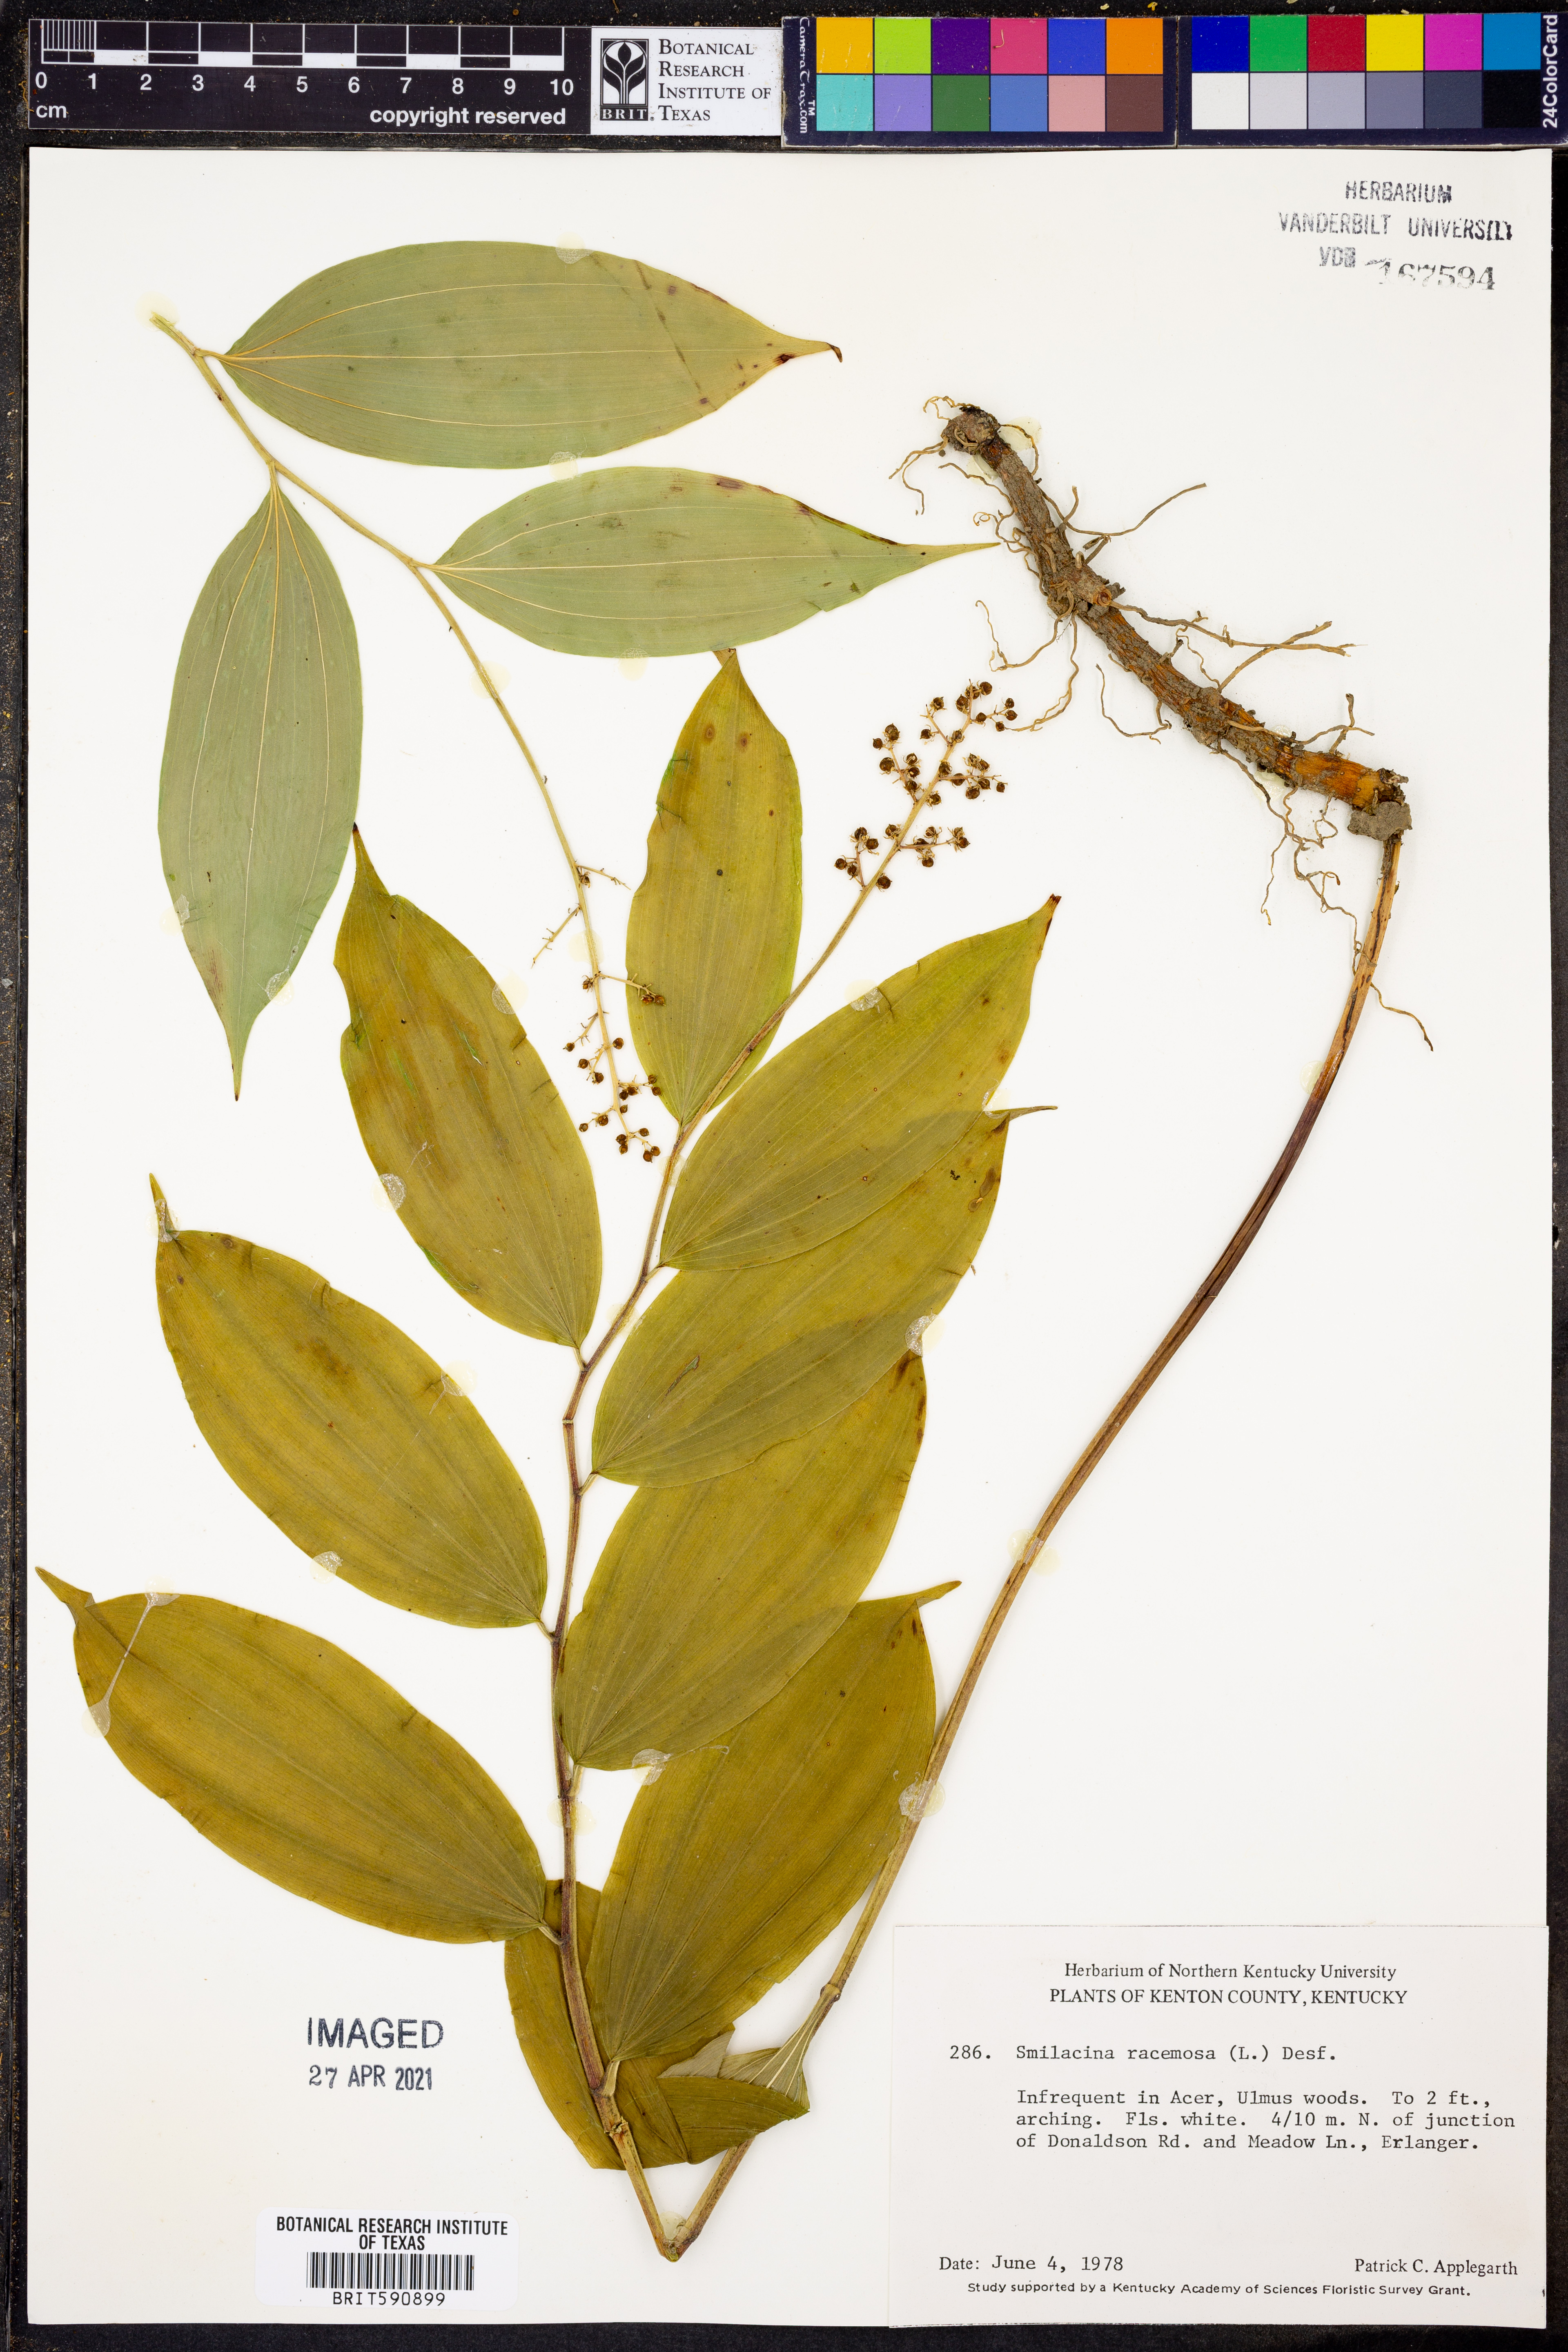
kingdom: Plantae
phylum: Tracheophyta
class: Liliopsida
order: Asparagales
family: Asparagaceae
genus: Maianthemum
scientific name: Maianthemum racemosum
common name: False spikenard
